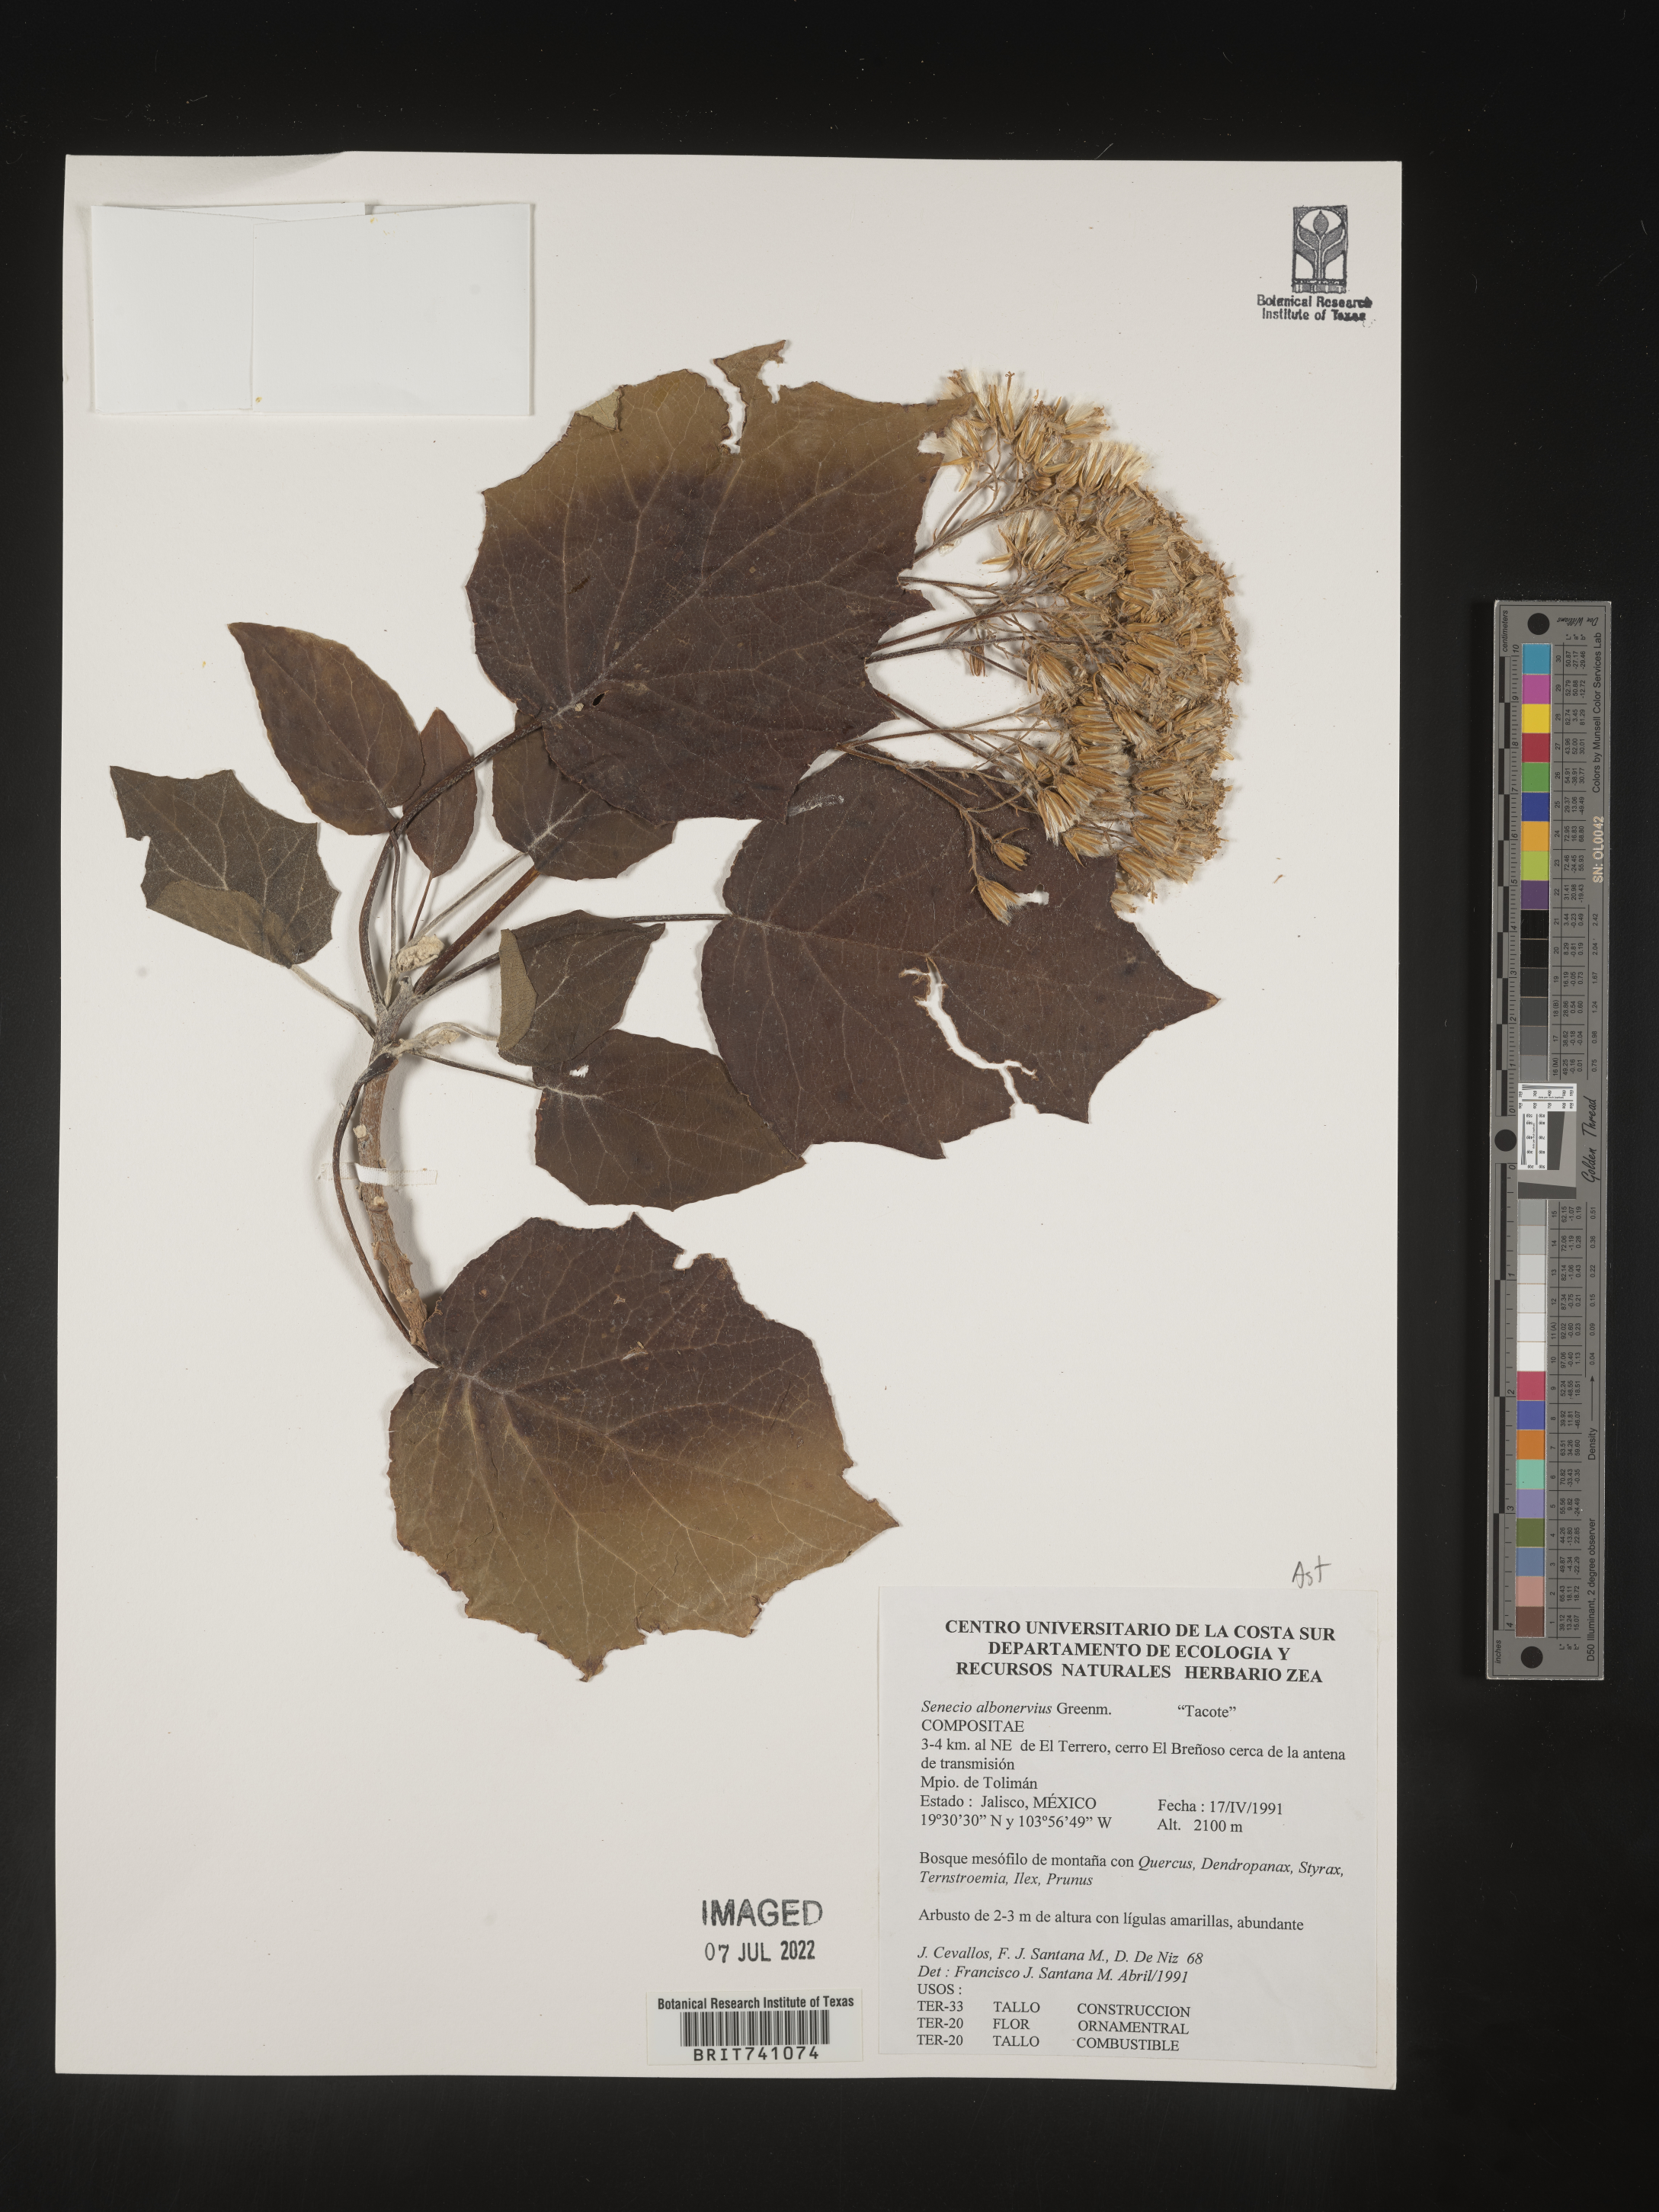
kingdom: Plantae
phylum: Tracheophyta
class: Magnoliopsida
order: Asterales
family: Asteraceae
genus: Senecio
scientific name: Senecio
